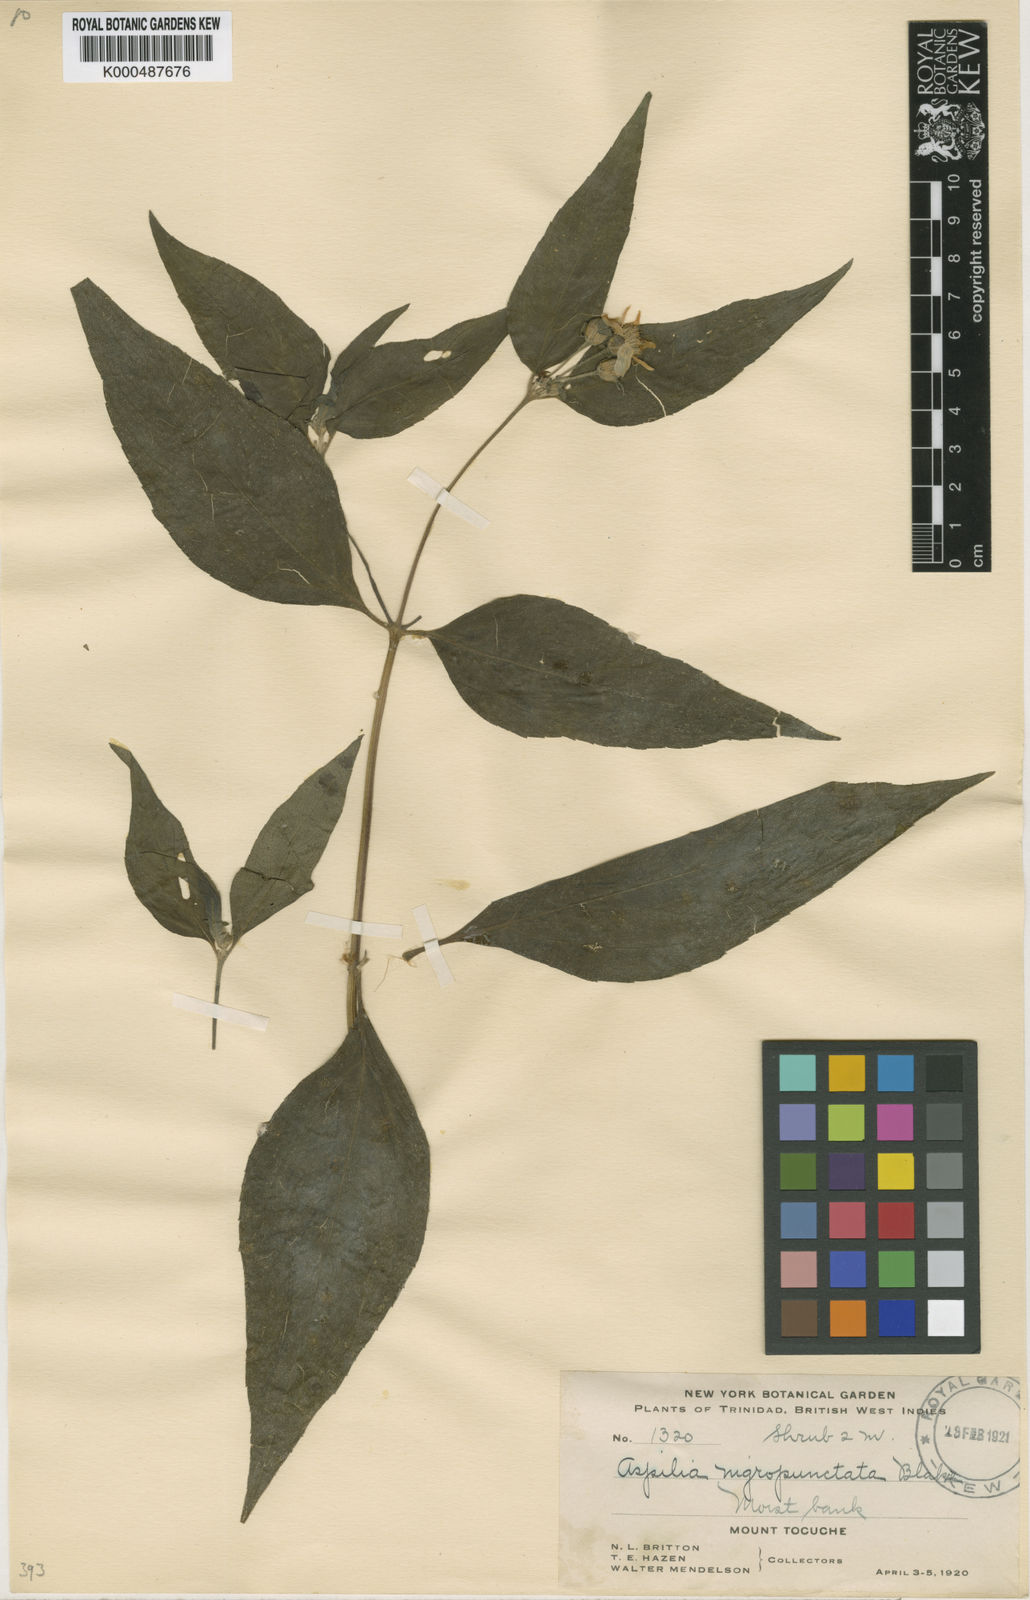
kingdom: Plantae
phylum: Tracheophyta
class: Magnoliopsida
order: Asterales
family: Asteraceae
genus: Elaphandra
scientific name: Elaphandra verbesinoides
